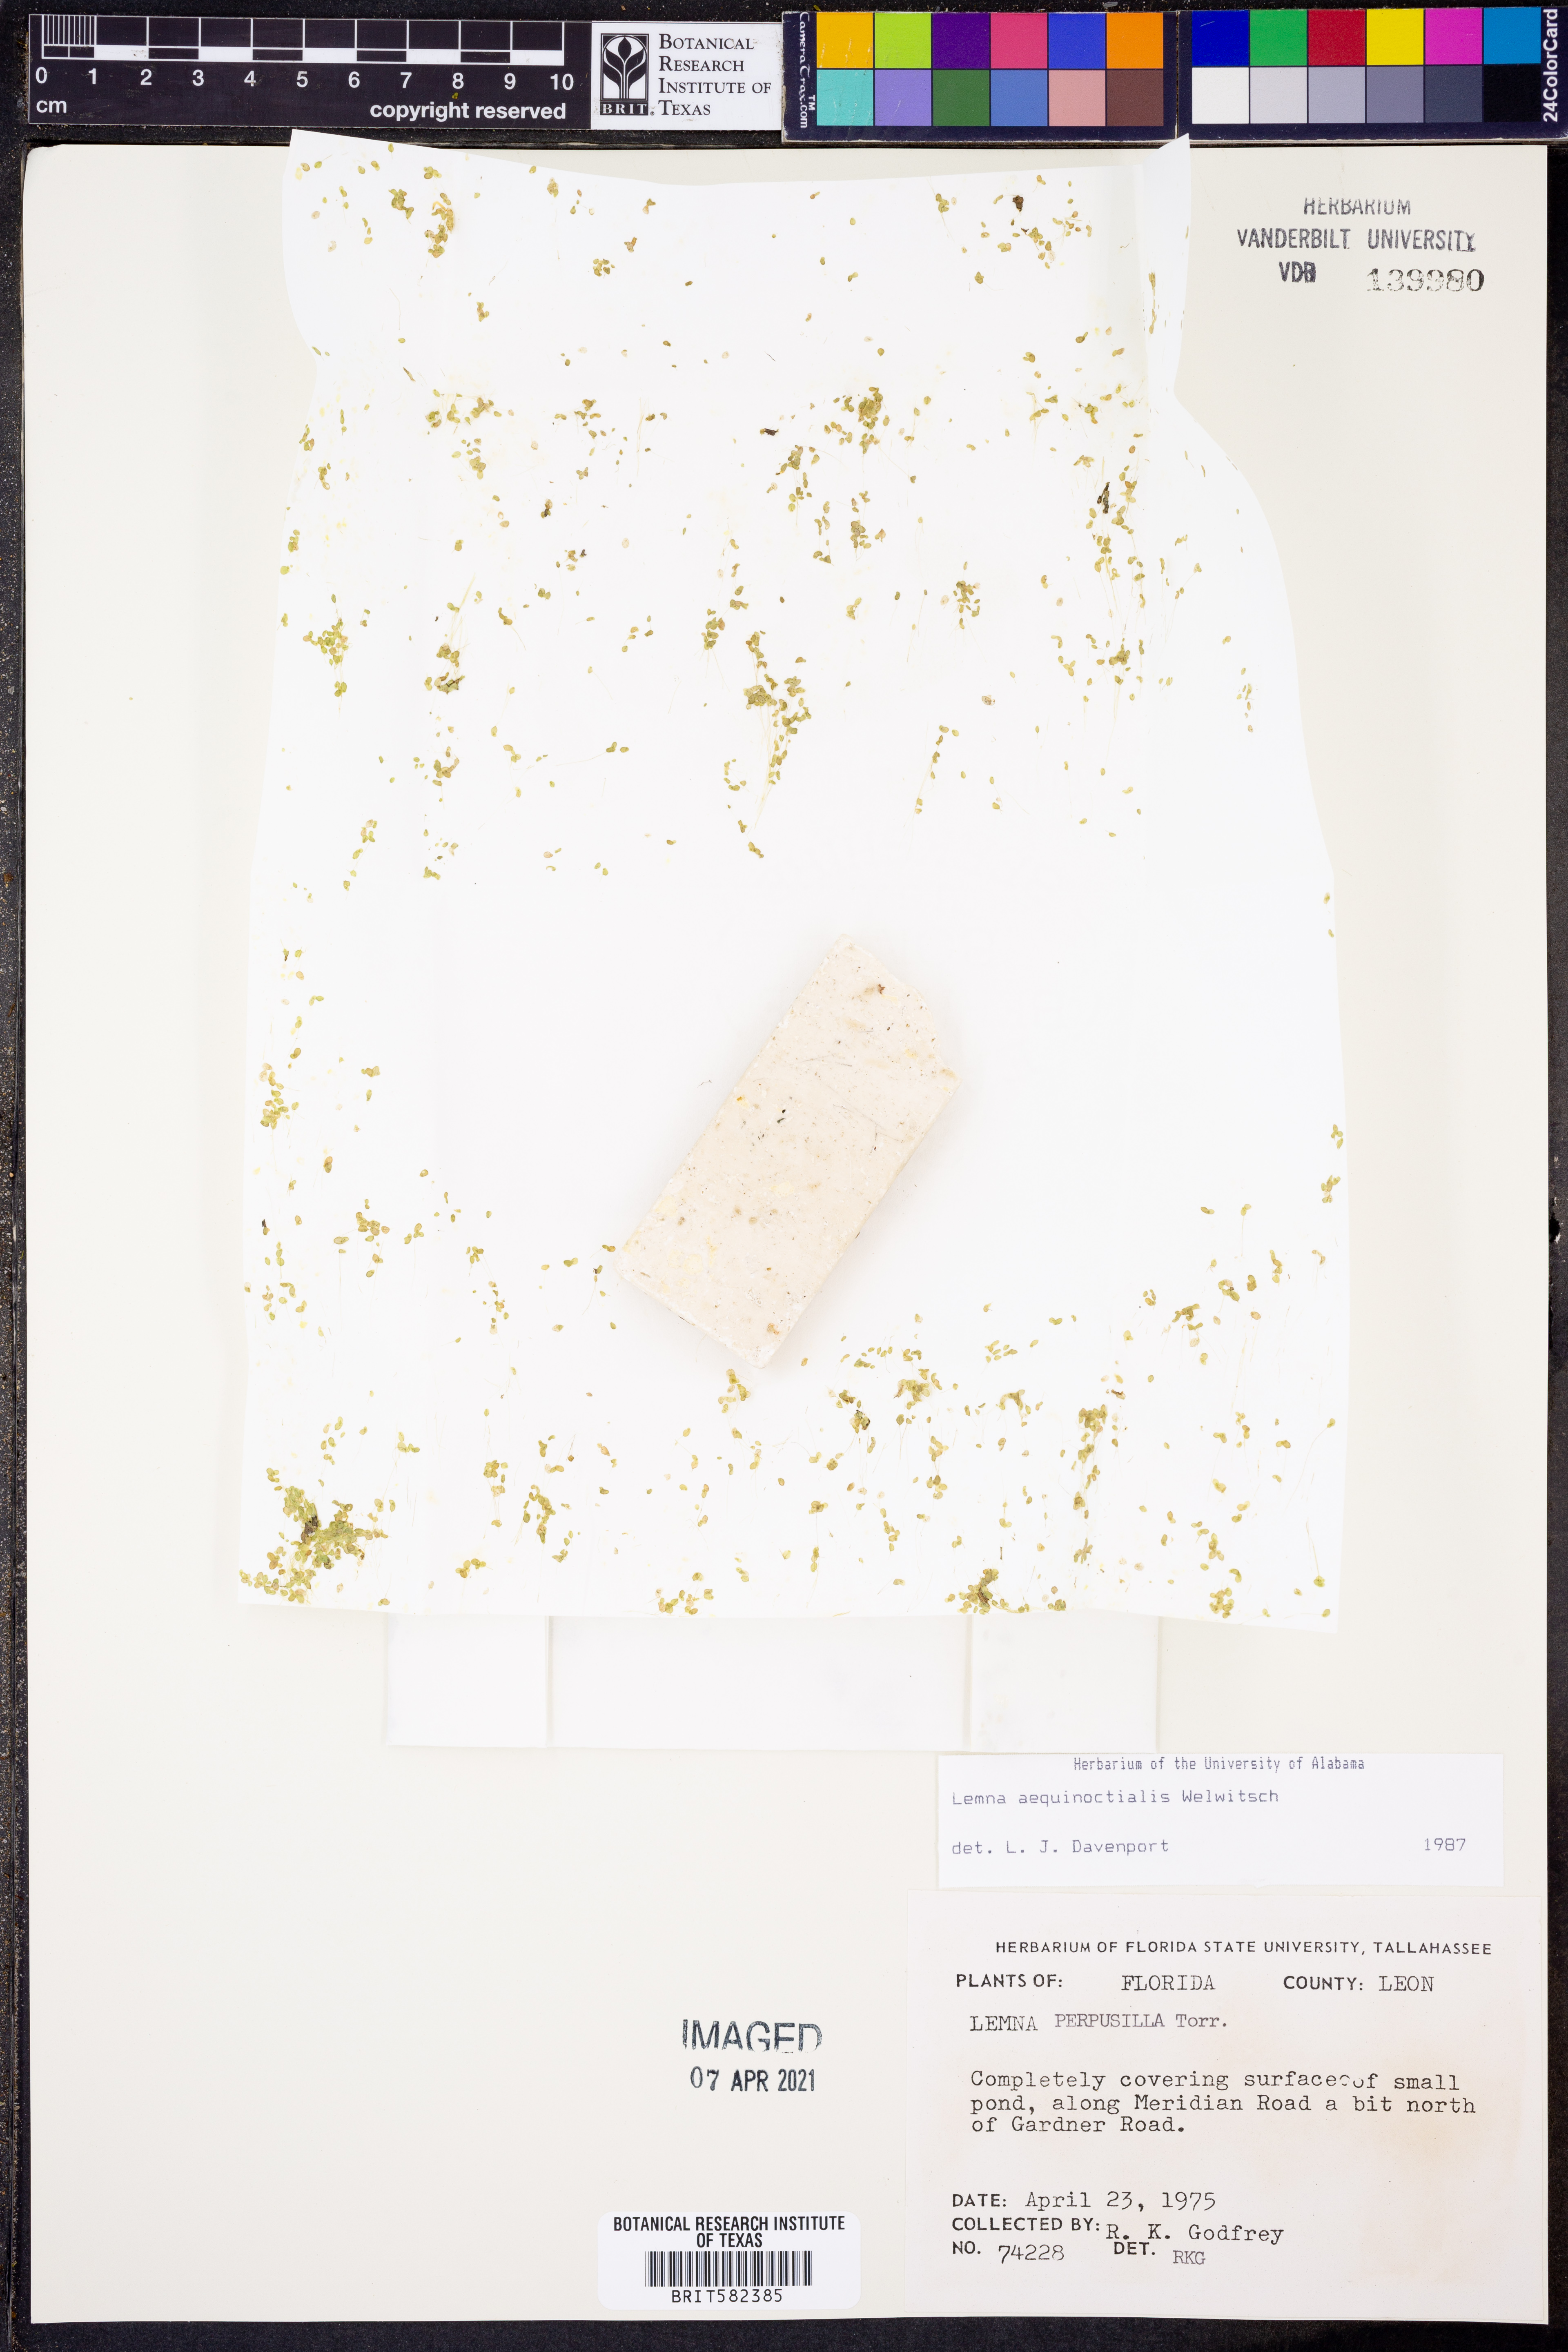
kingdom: Plantae
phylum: Tracheophyta
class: Liliopsida
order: Alismatales
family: Araceae
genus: Lemna
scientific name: Lemna perpusilla
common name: Duckweed
